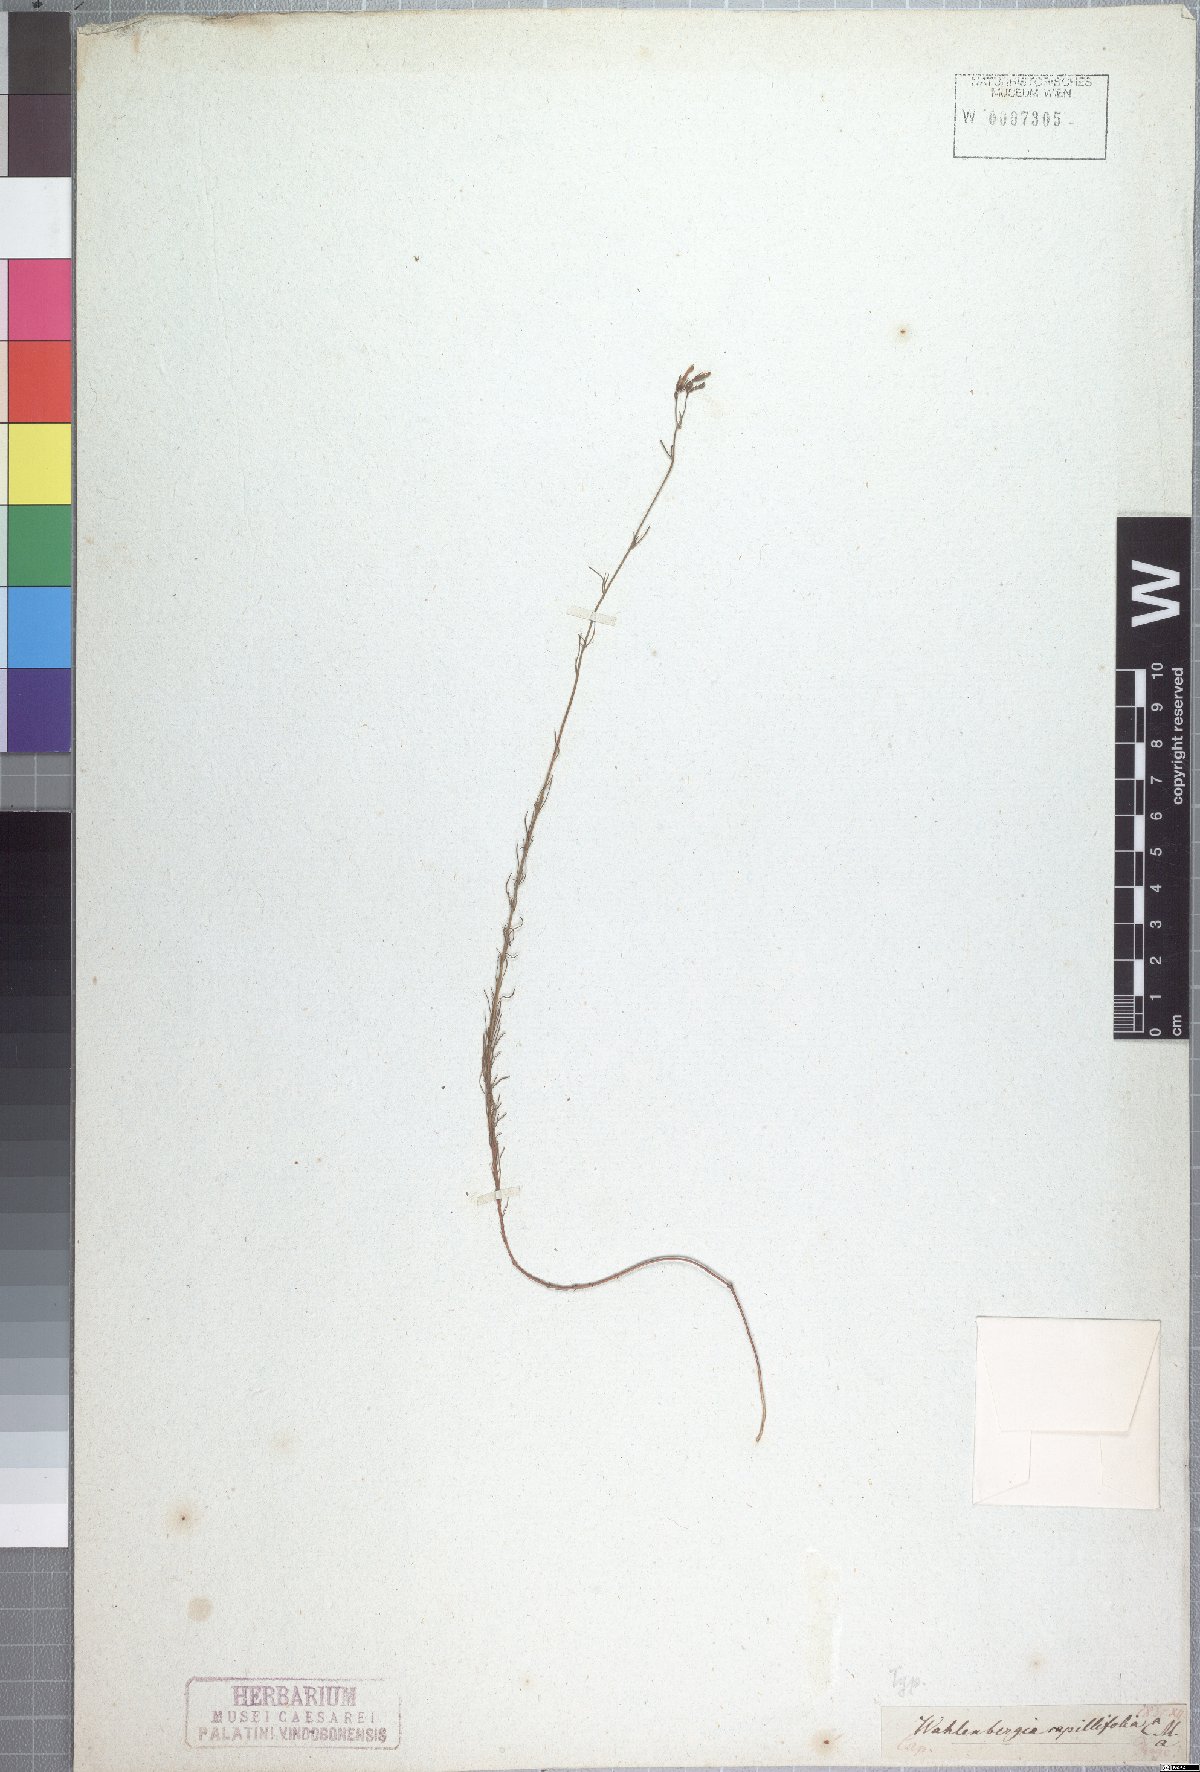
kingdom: Plantae
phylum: Tracheophyta
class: Magnoliopsida
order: Asterales
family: Campanulaceae
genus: Wahlenbergia
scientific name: Wahlenbergia capillifolia
